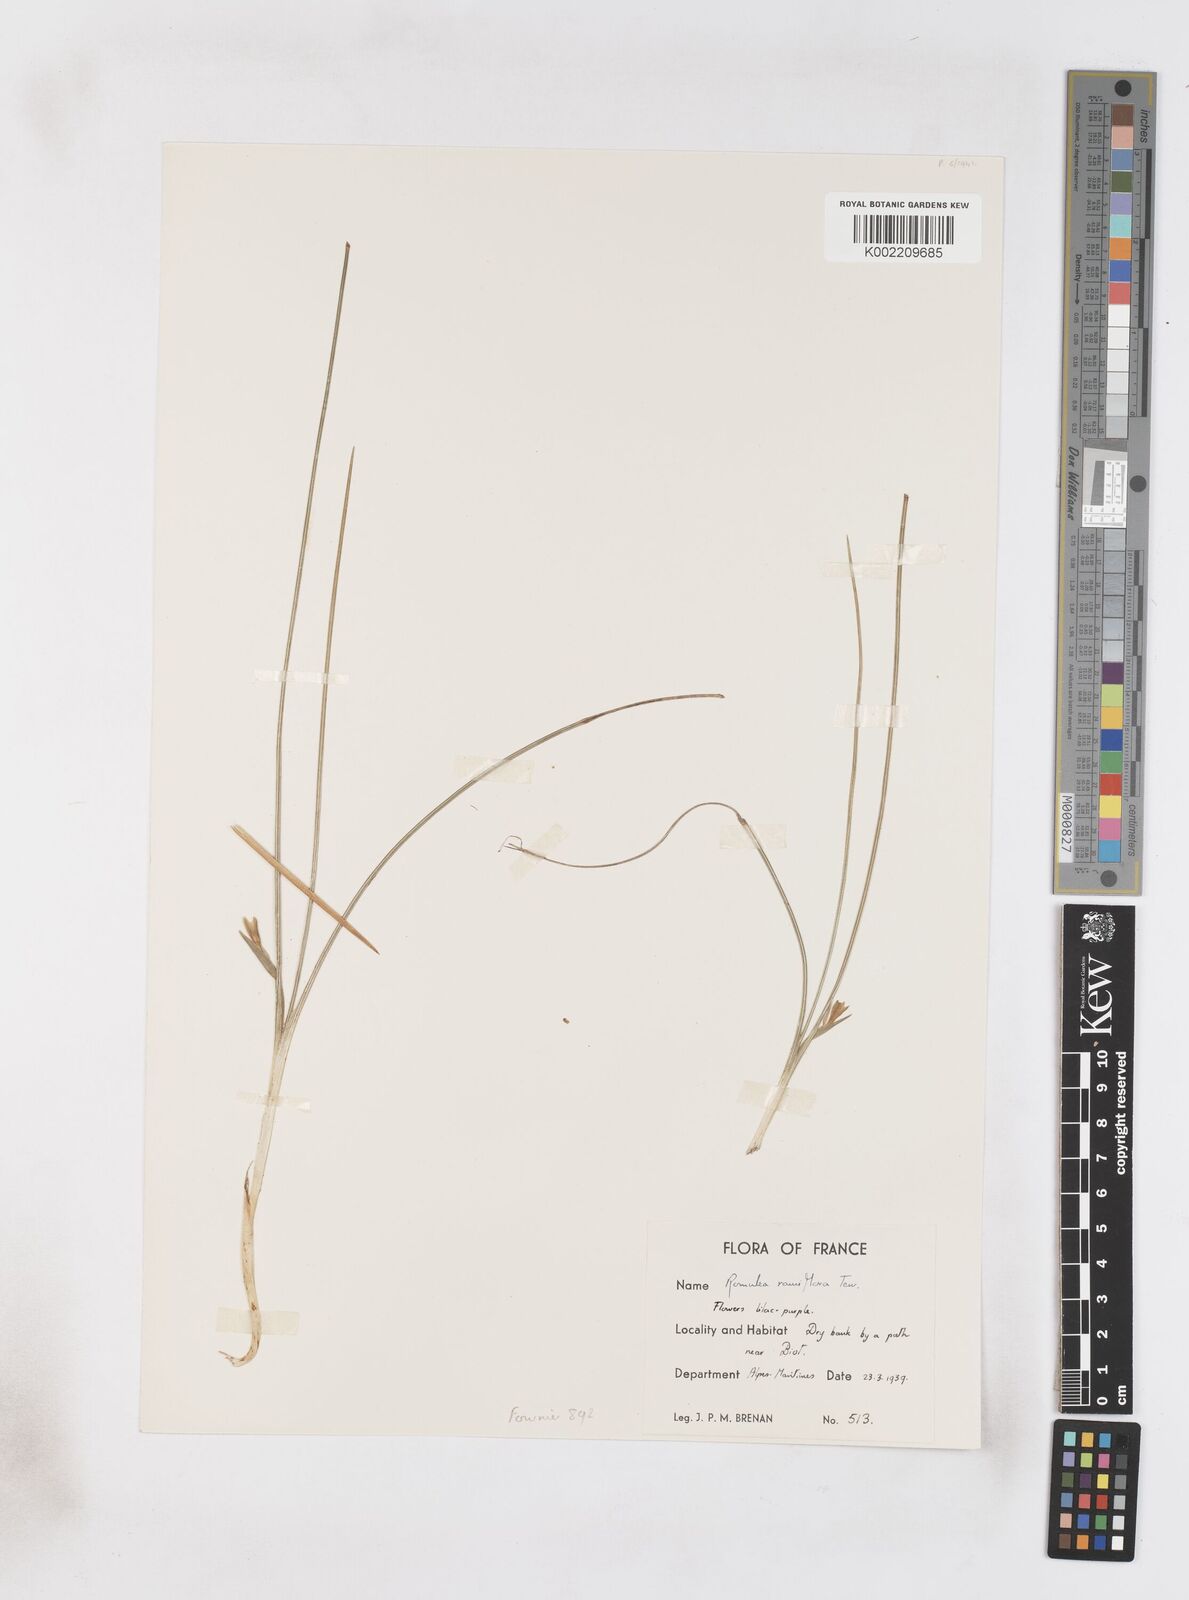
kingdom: Plantae
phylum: Tracheophyta
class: Liliopsida
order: Asparagales
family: Iridaceae
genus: Romulea
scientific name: Romulea ramiflora
